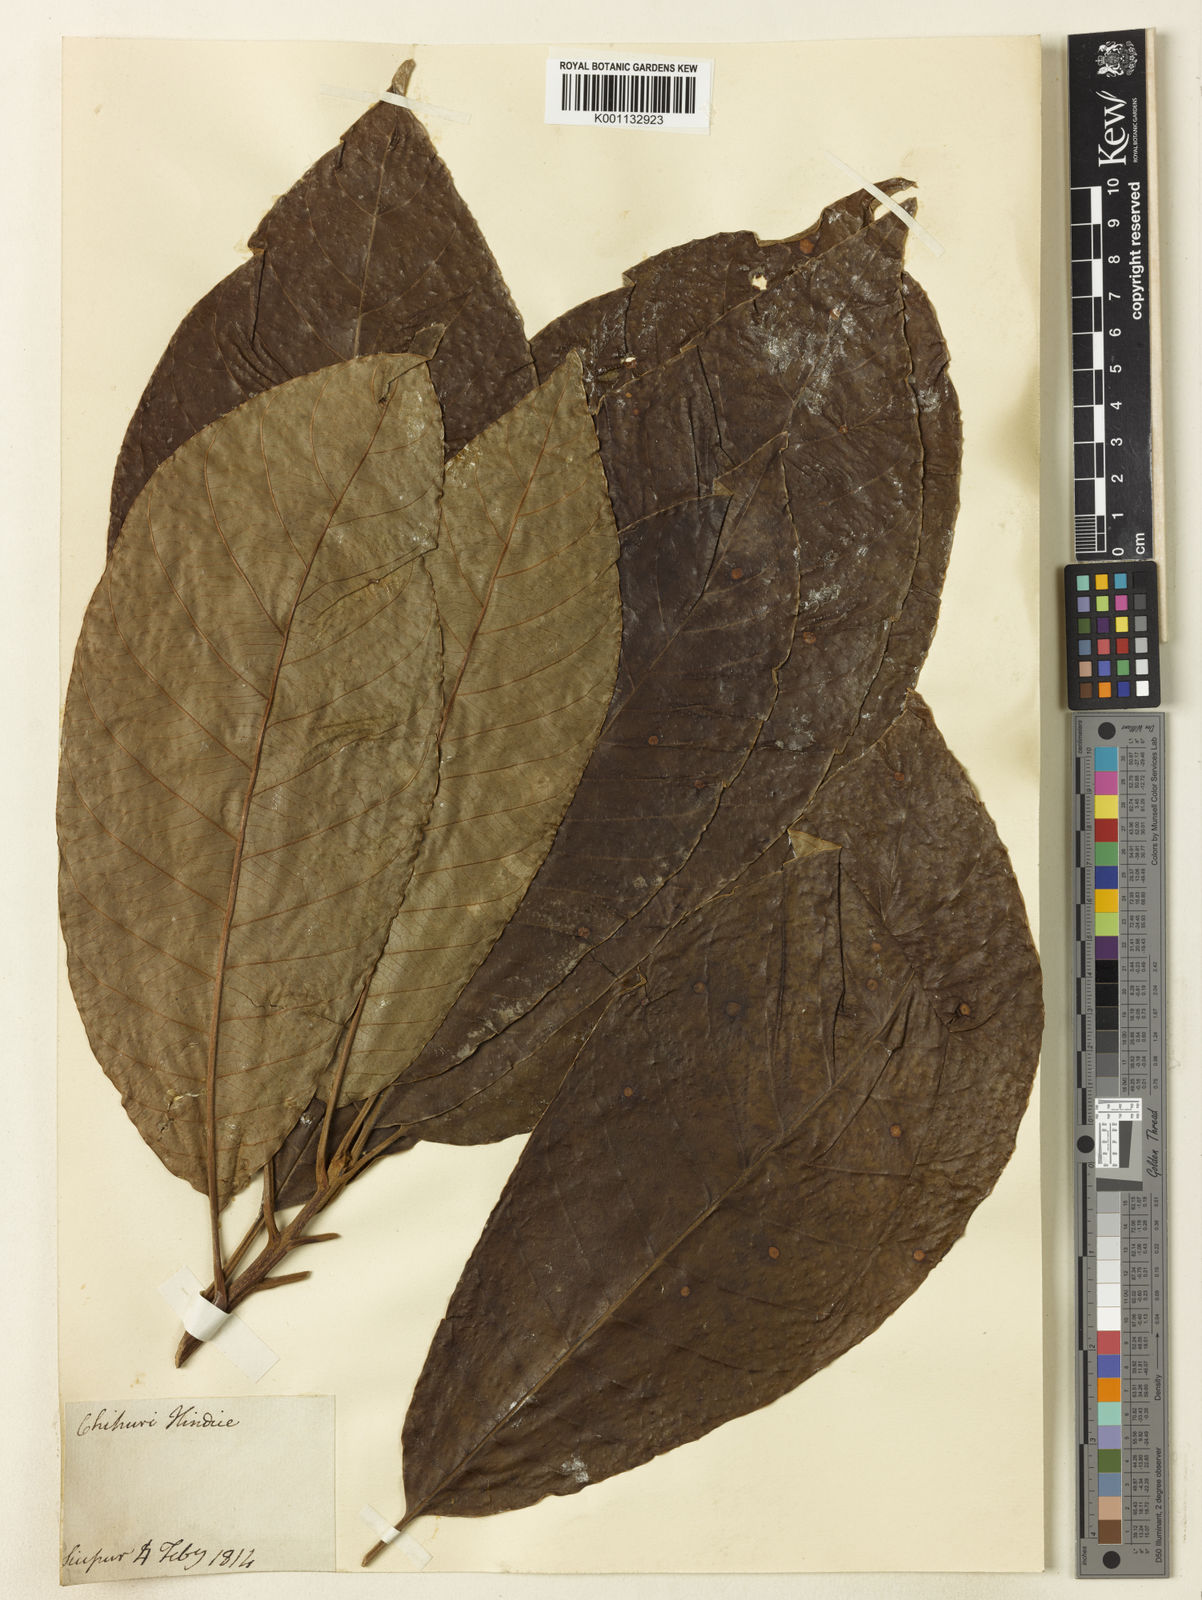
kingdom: Plantae
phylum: Tracheophyta
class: Magnoliopsida
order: Ericales
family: Sapotaceae
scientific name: Sapotaceae
